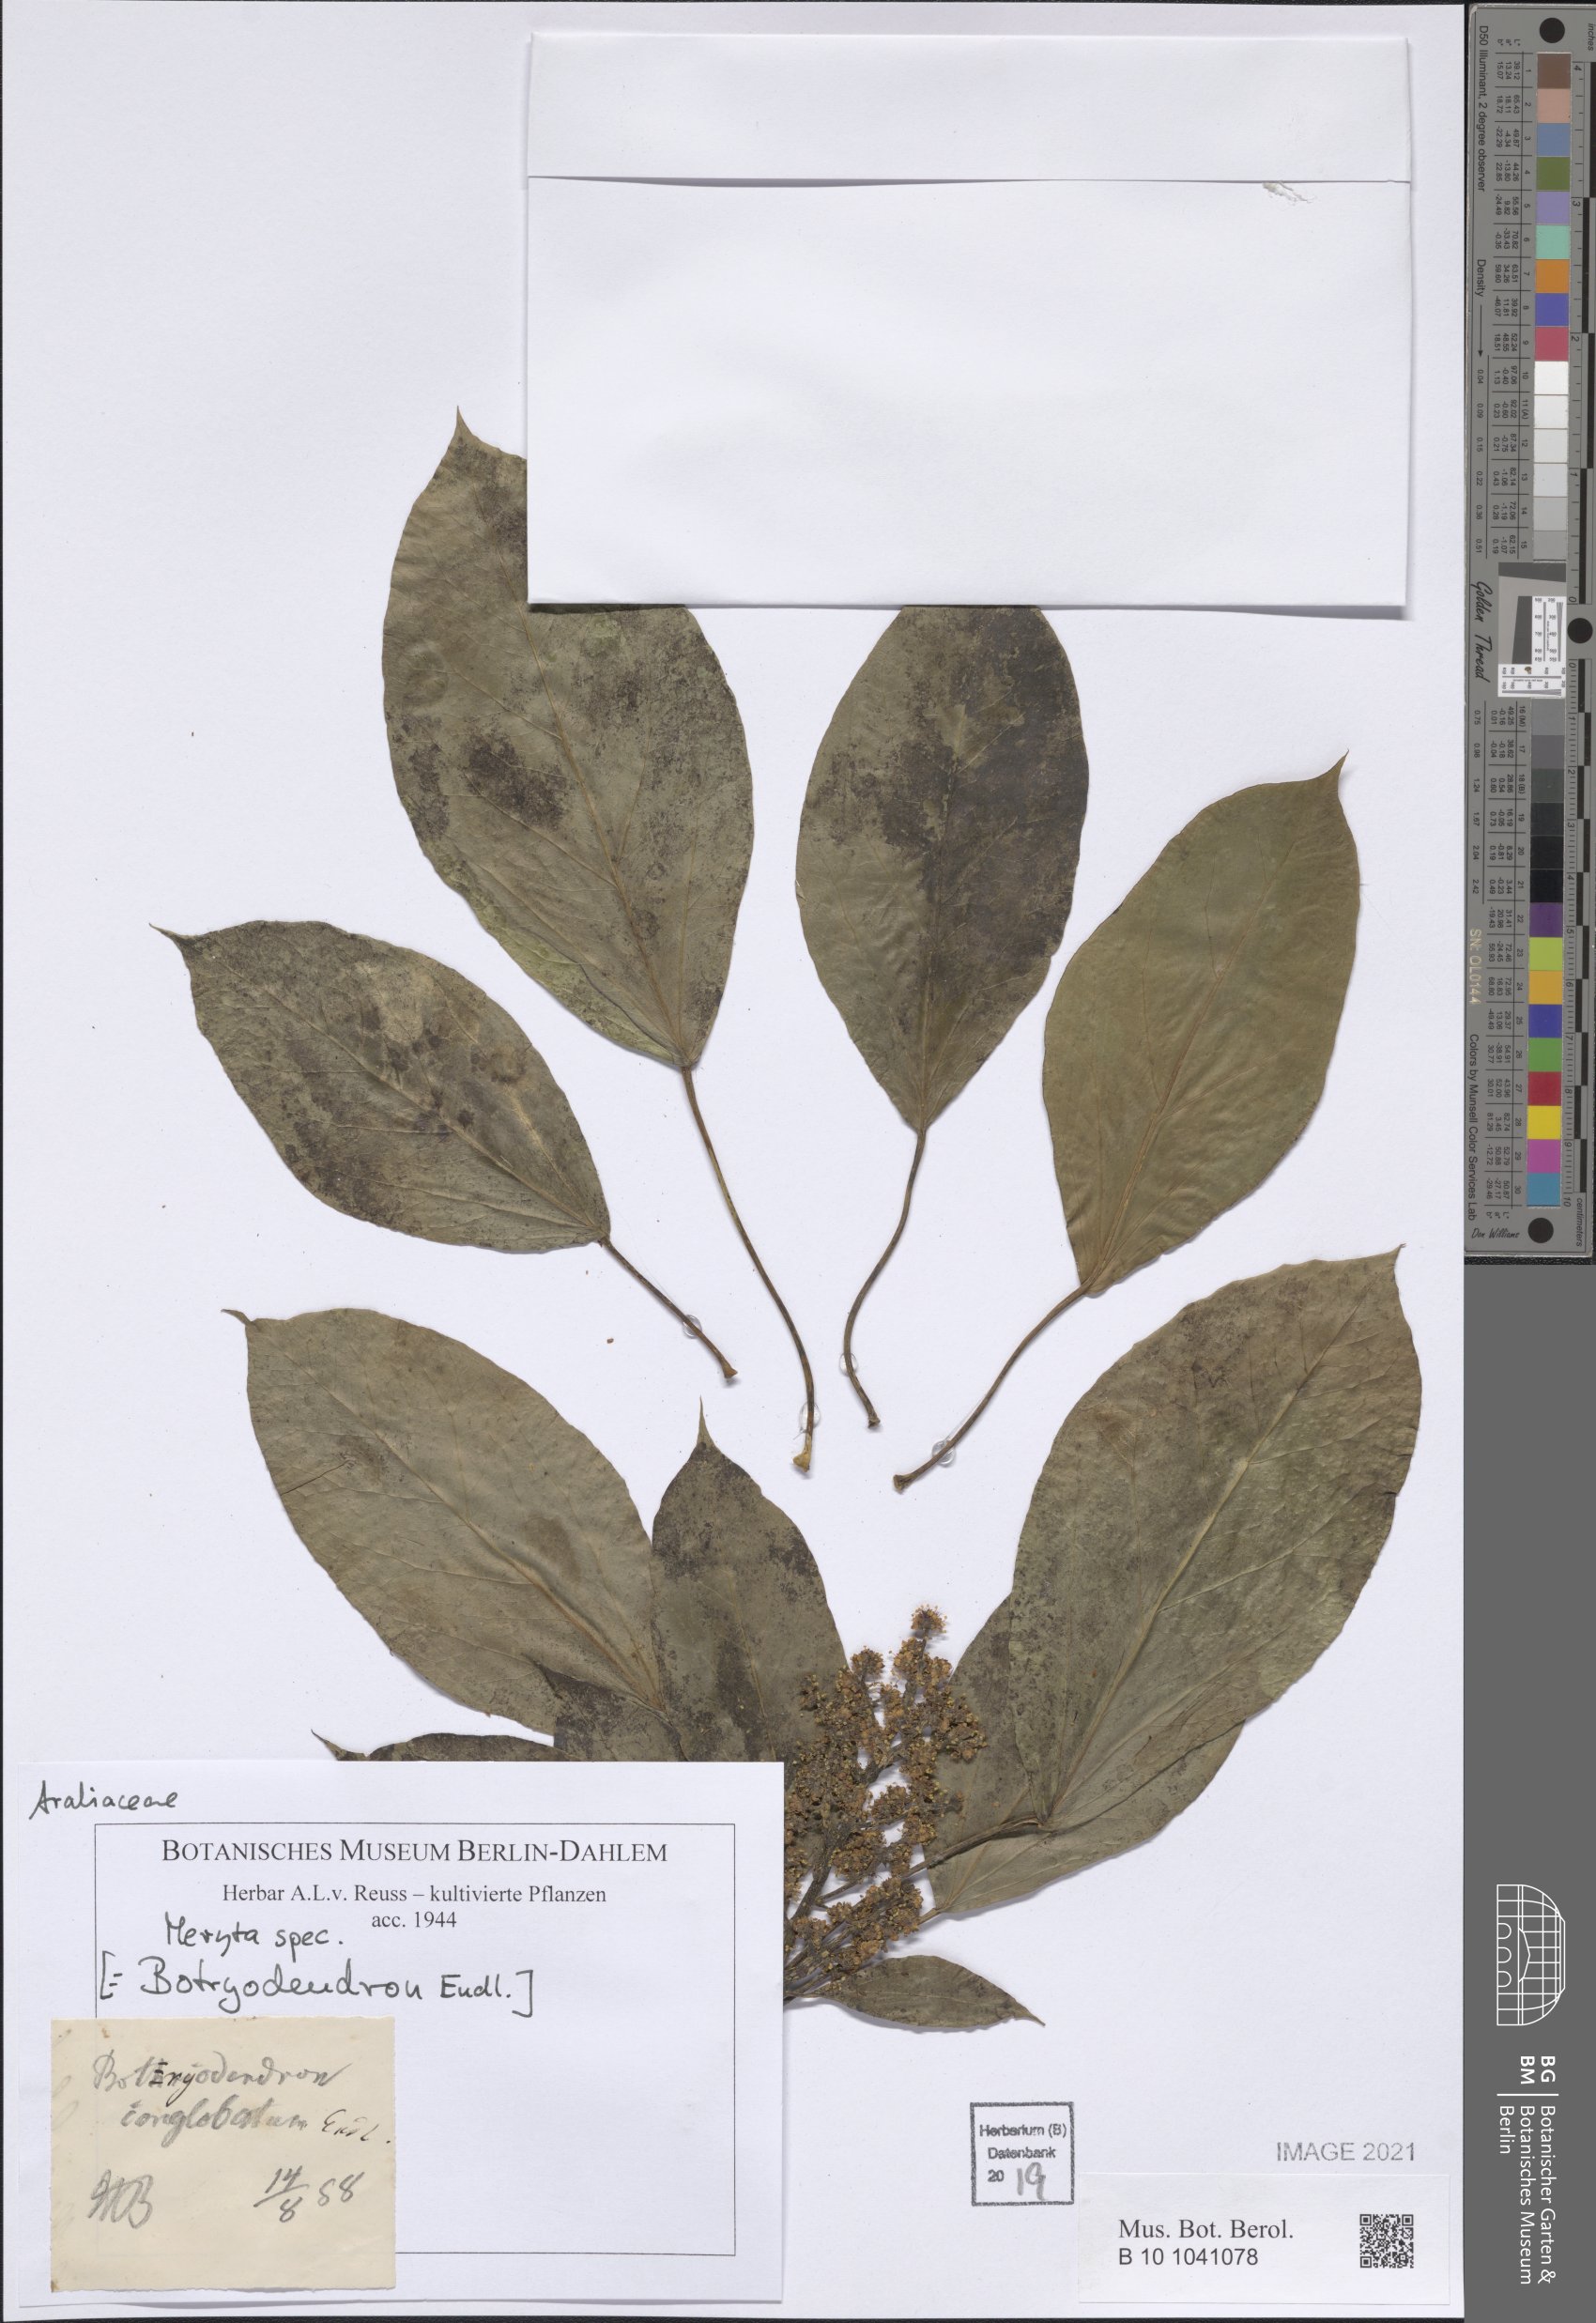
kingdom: Plantae
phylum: Tracheophyta
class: Magnoliopsida
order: Apiales
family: Araliaceae
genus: Meryta
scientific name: Meryta
